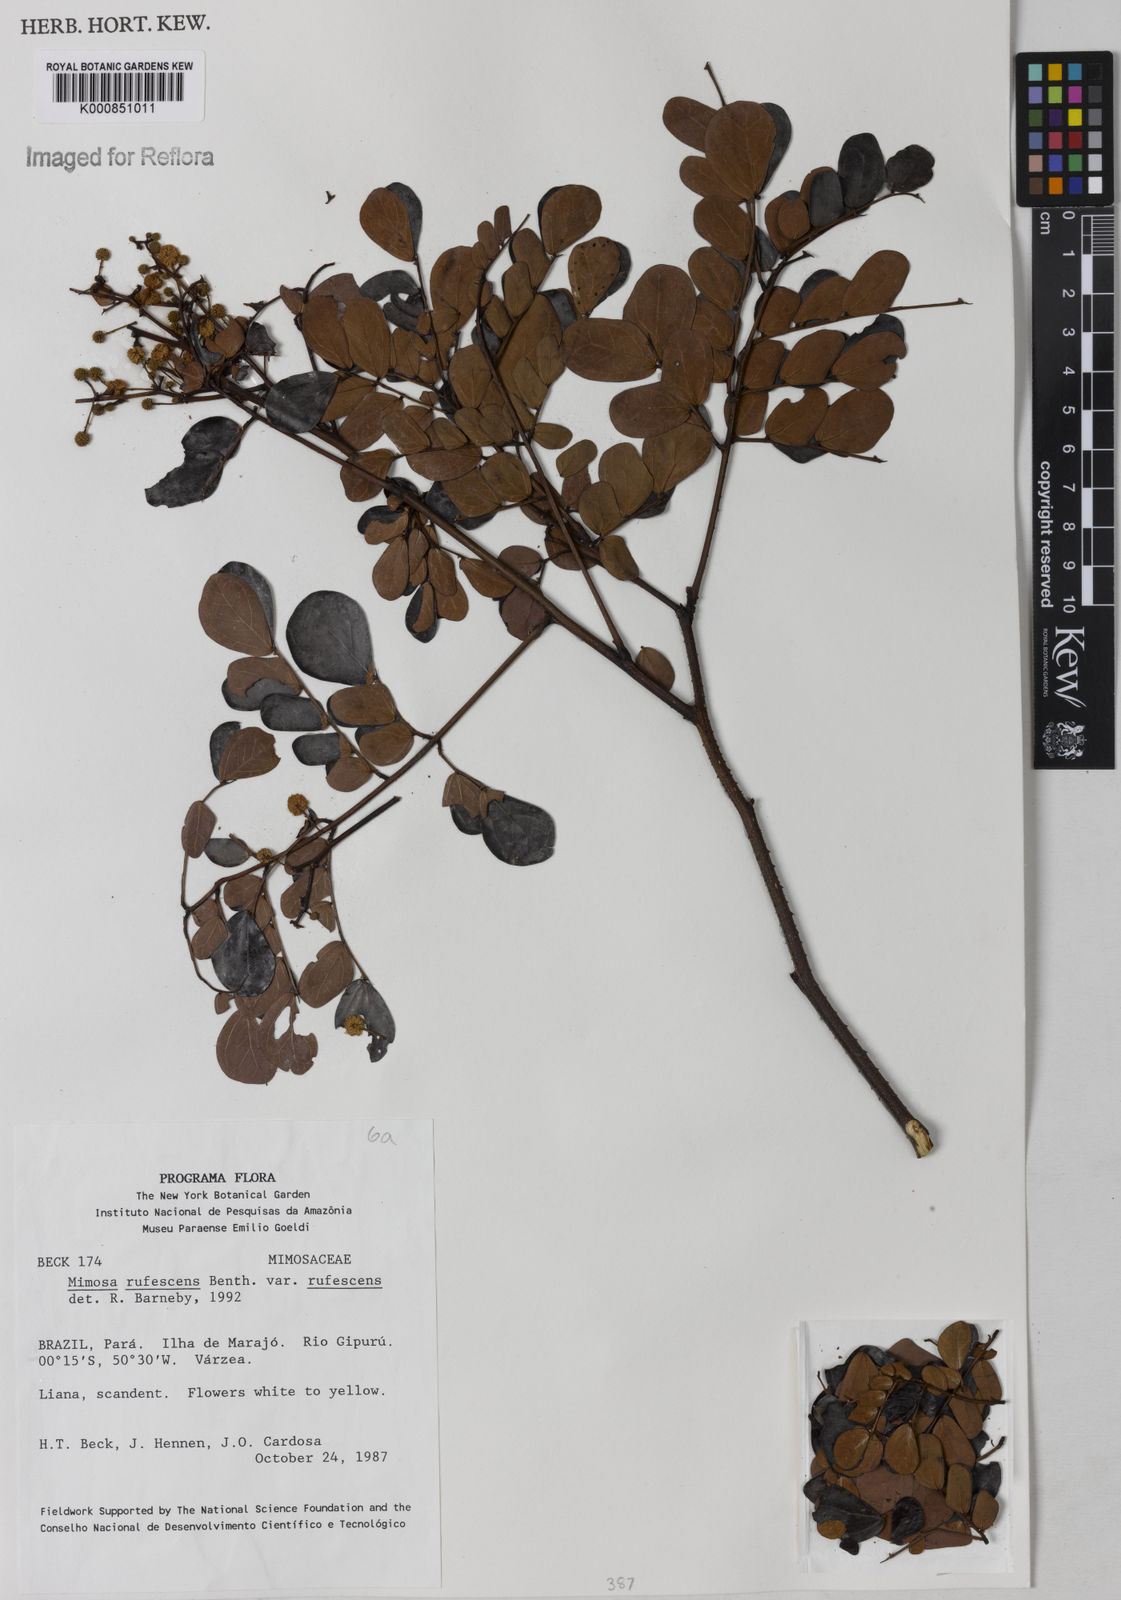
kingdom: Plantae
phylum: Tracheophyta
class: Magnoliopsida
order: Fabales
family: Fabaceae
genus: Mimosa
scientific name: Mimosa rufescens
